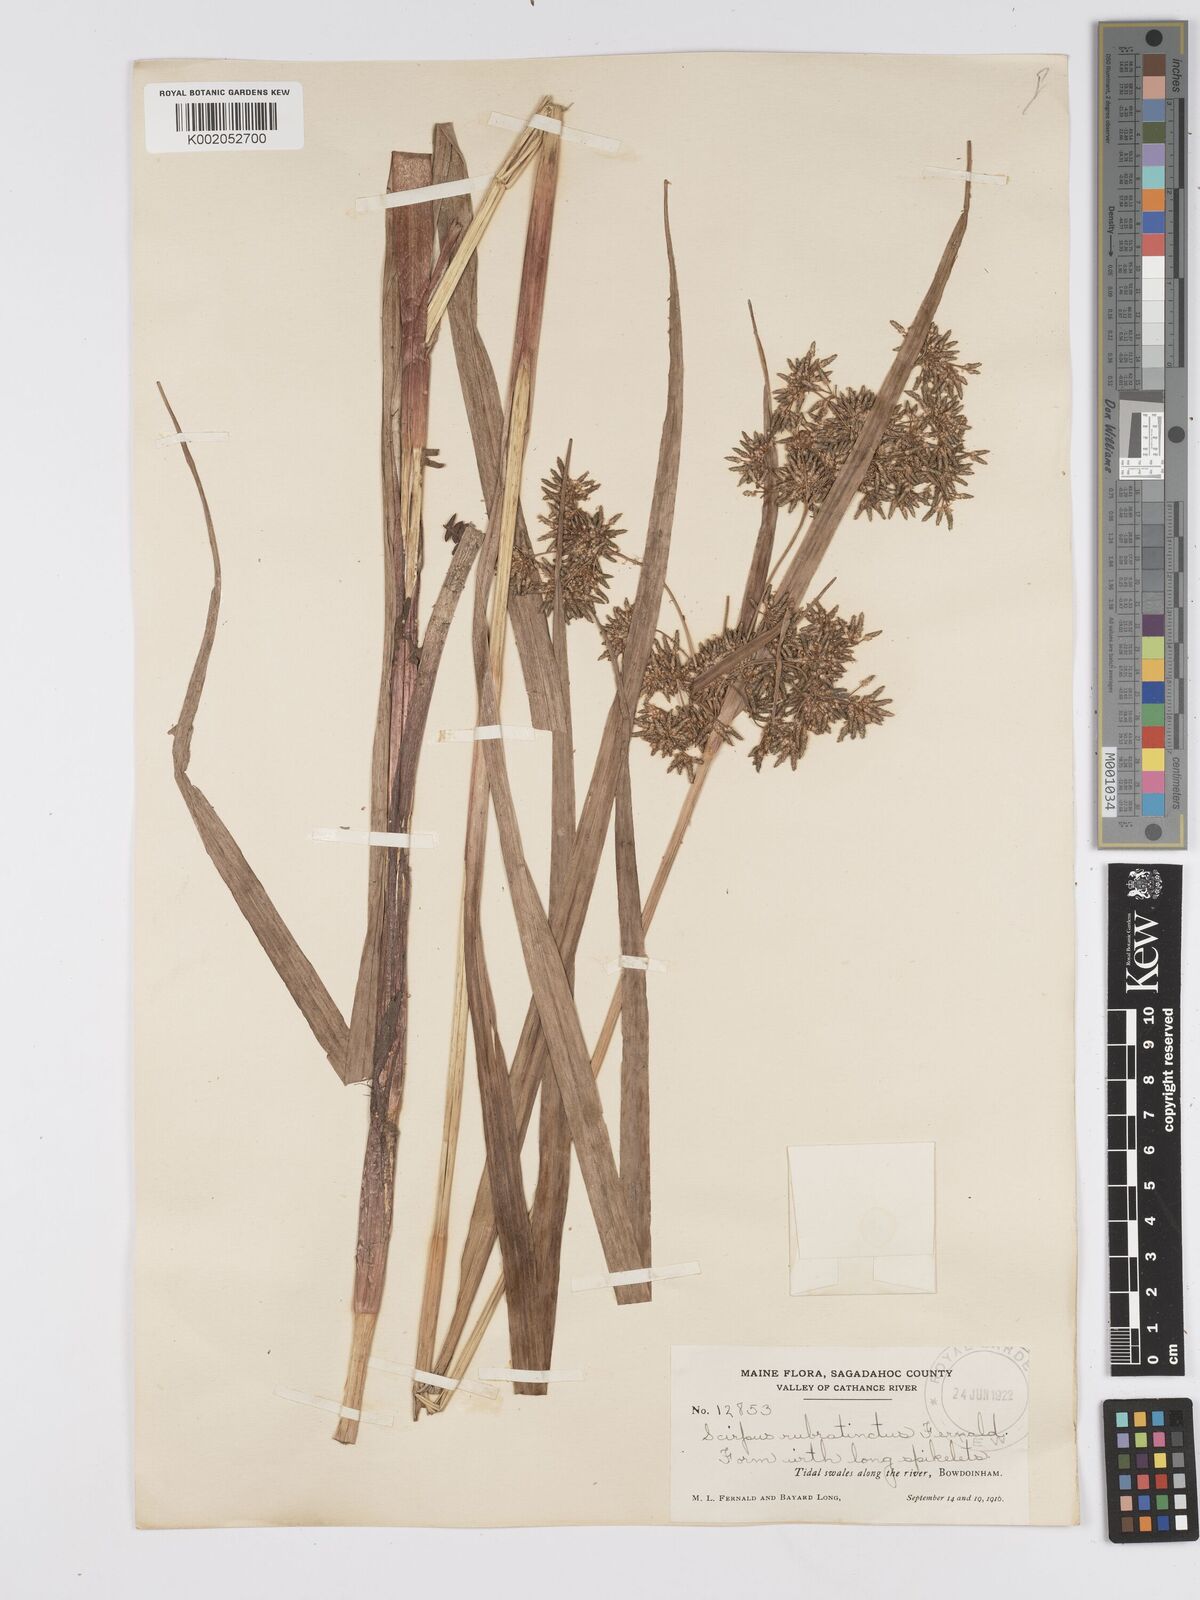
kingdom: Plantae
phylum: Tracheophyta
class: Liliopsida
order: Poales
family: Cyperaceae
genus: Scirpus
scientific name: Scirpus atrovirens
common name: Black bulrush
